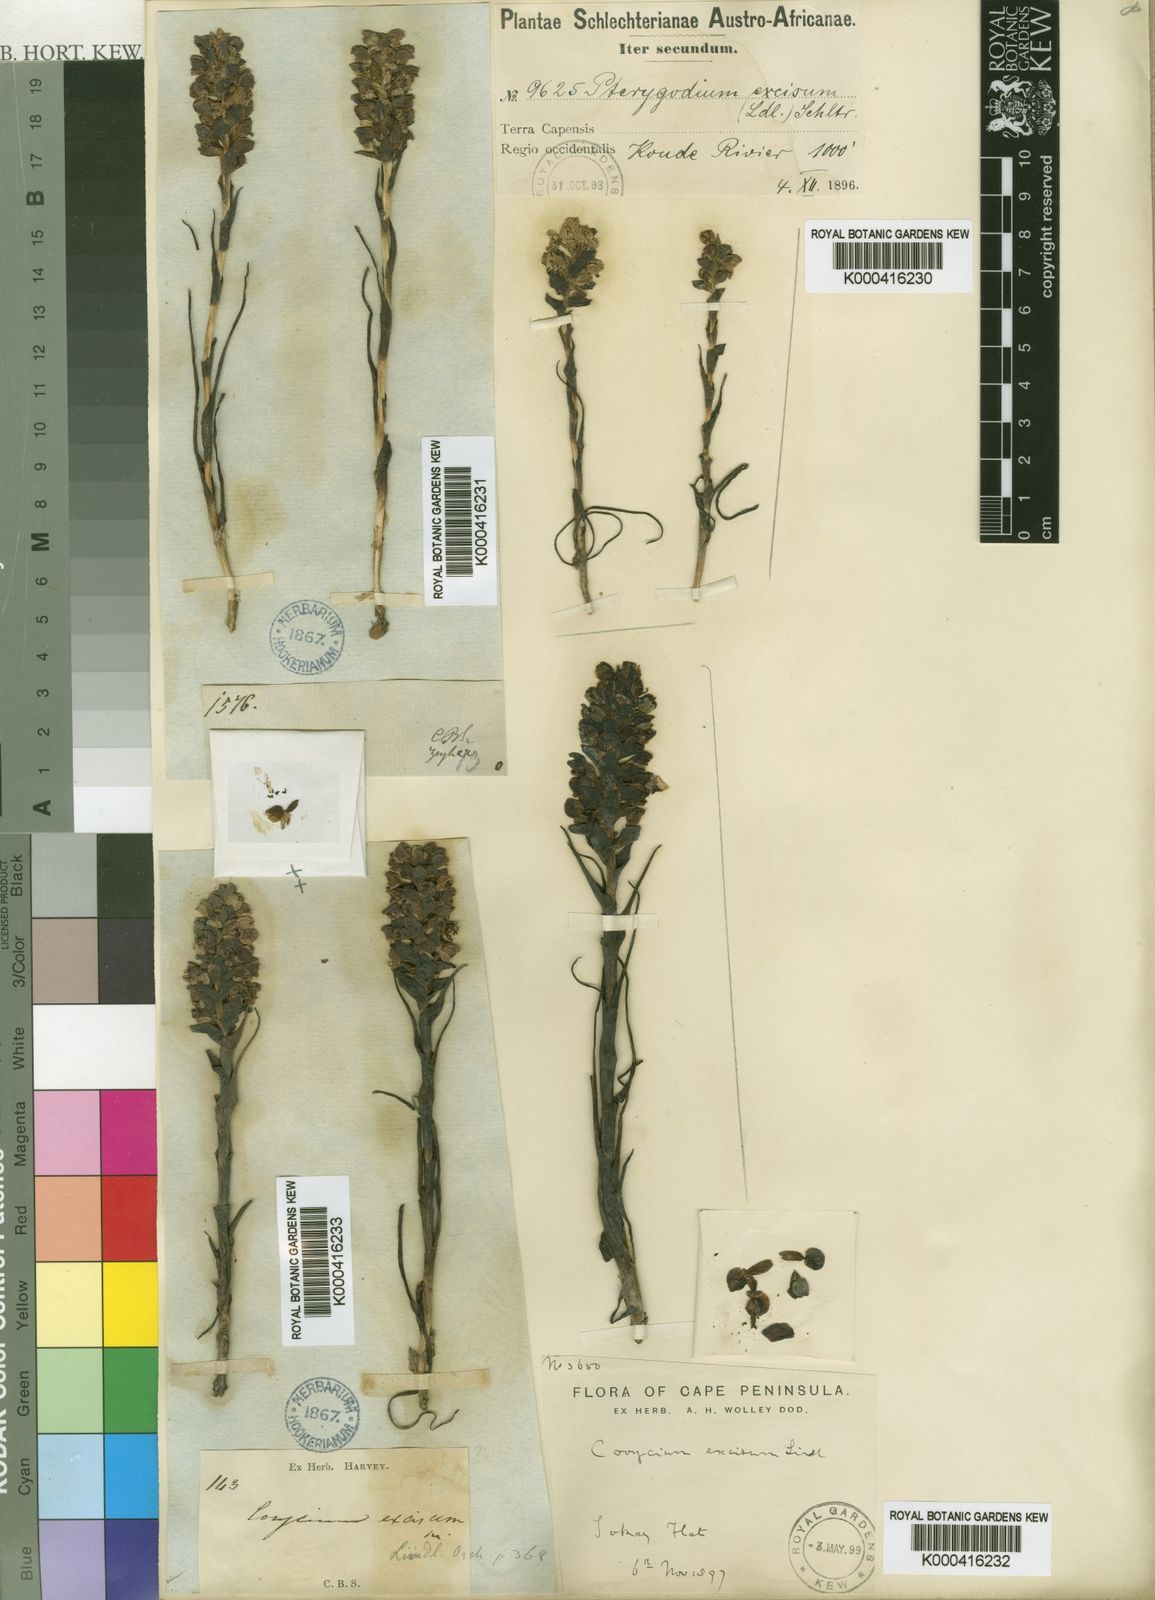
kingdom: Plantae
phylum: Tracheophyta
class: Liliopsida
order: Asparagales
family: Orchidaceae
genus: Corycium
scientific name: Corycium excisum
